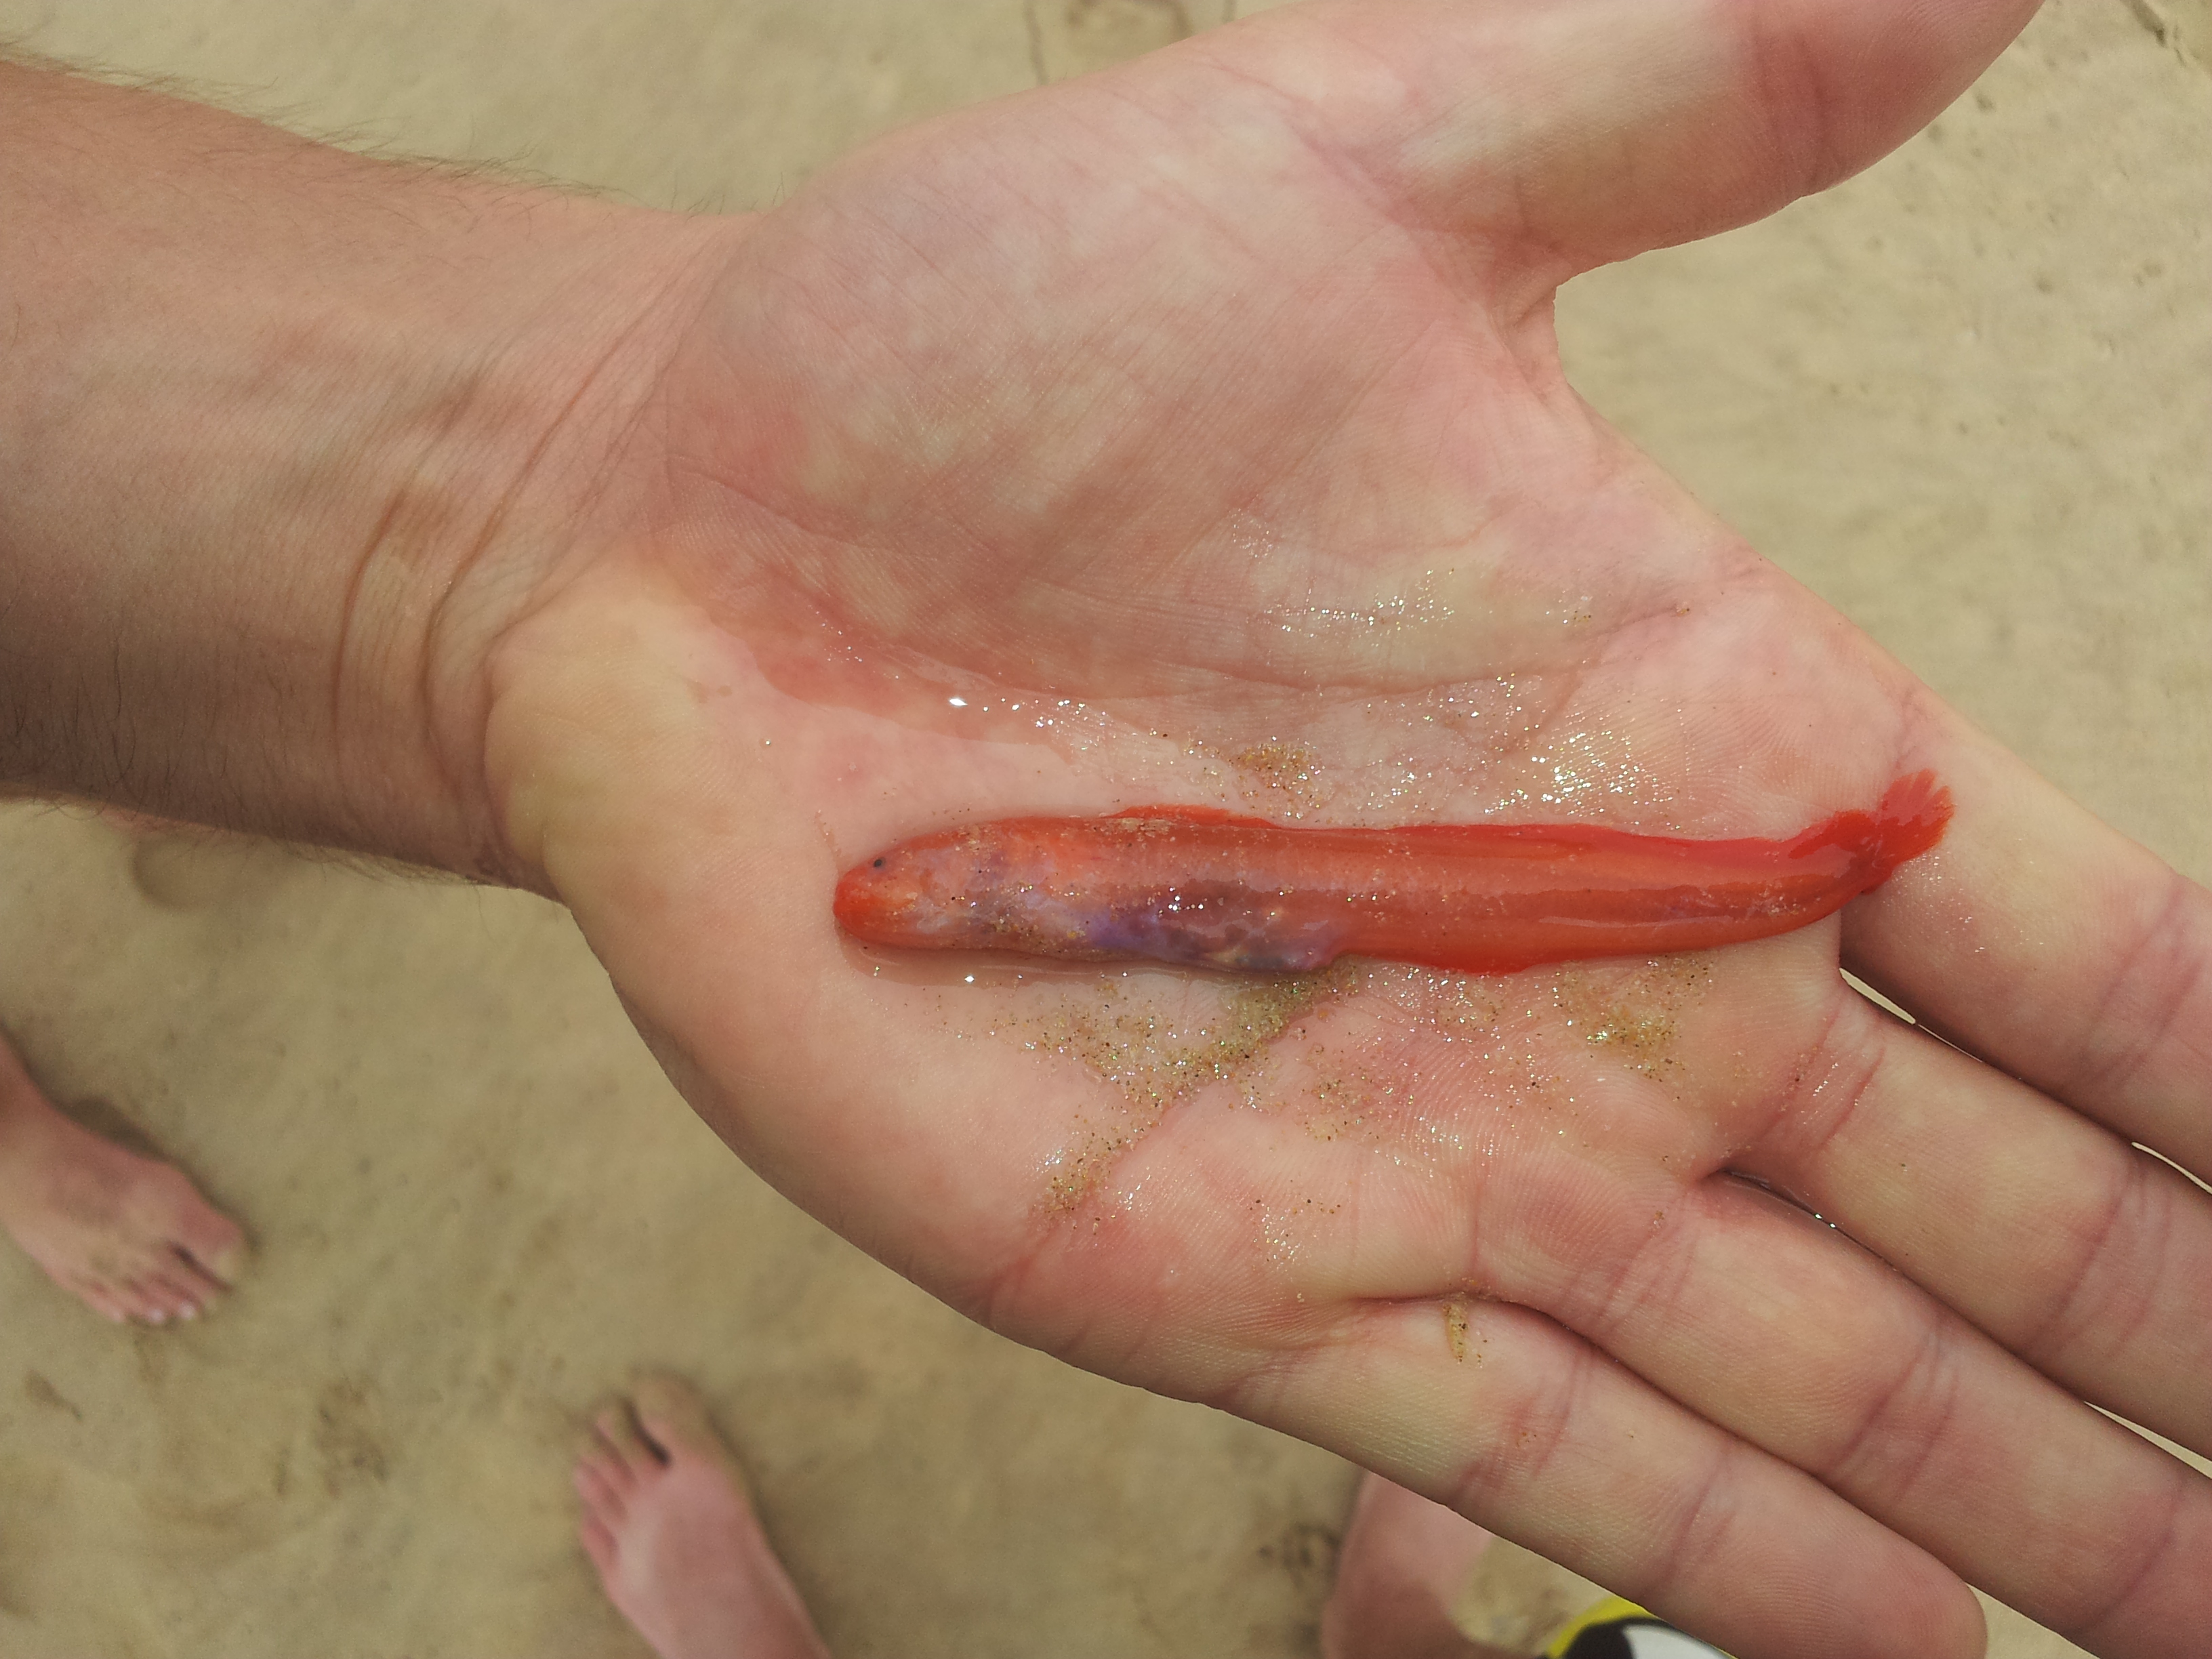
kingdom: Animalia
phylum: Chordata
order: Ophidiiformes
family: Bythitidae
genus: Dermatopsoides
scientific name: Dermatopsoides kasougae
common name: Orange brotula
